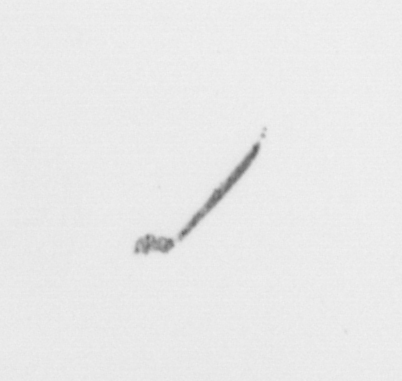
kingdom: Chromista
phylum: Ochrophyta
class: Bacillariophyceae
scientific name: Bacillariophyceae
